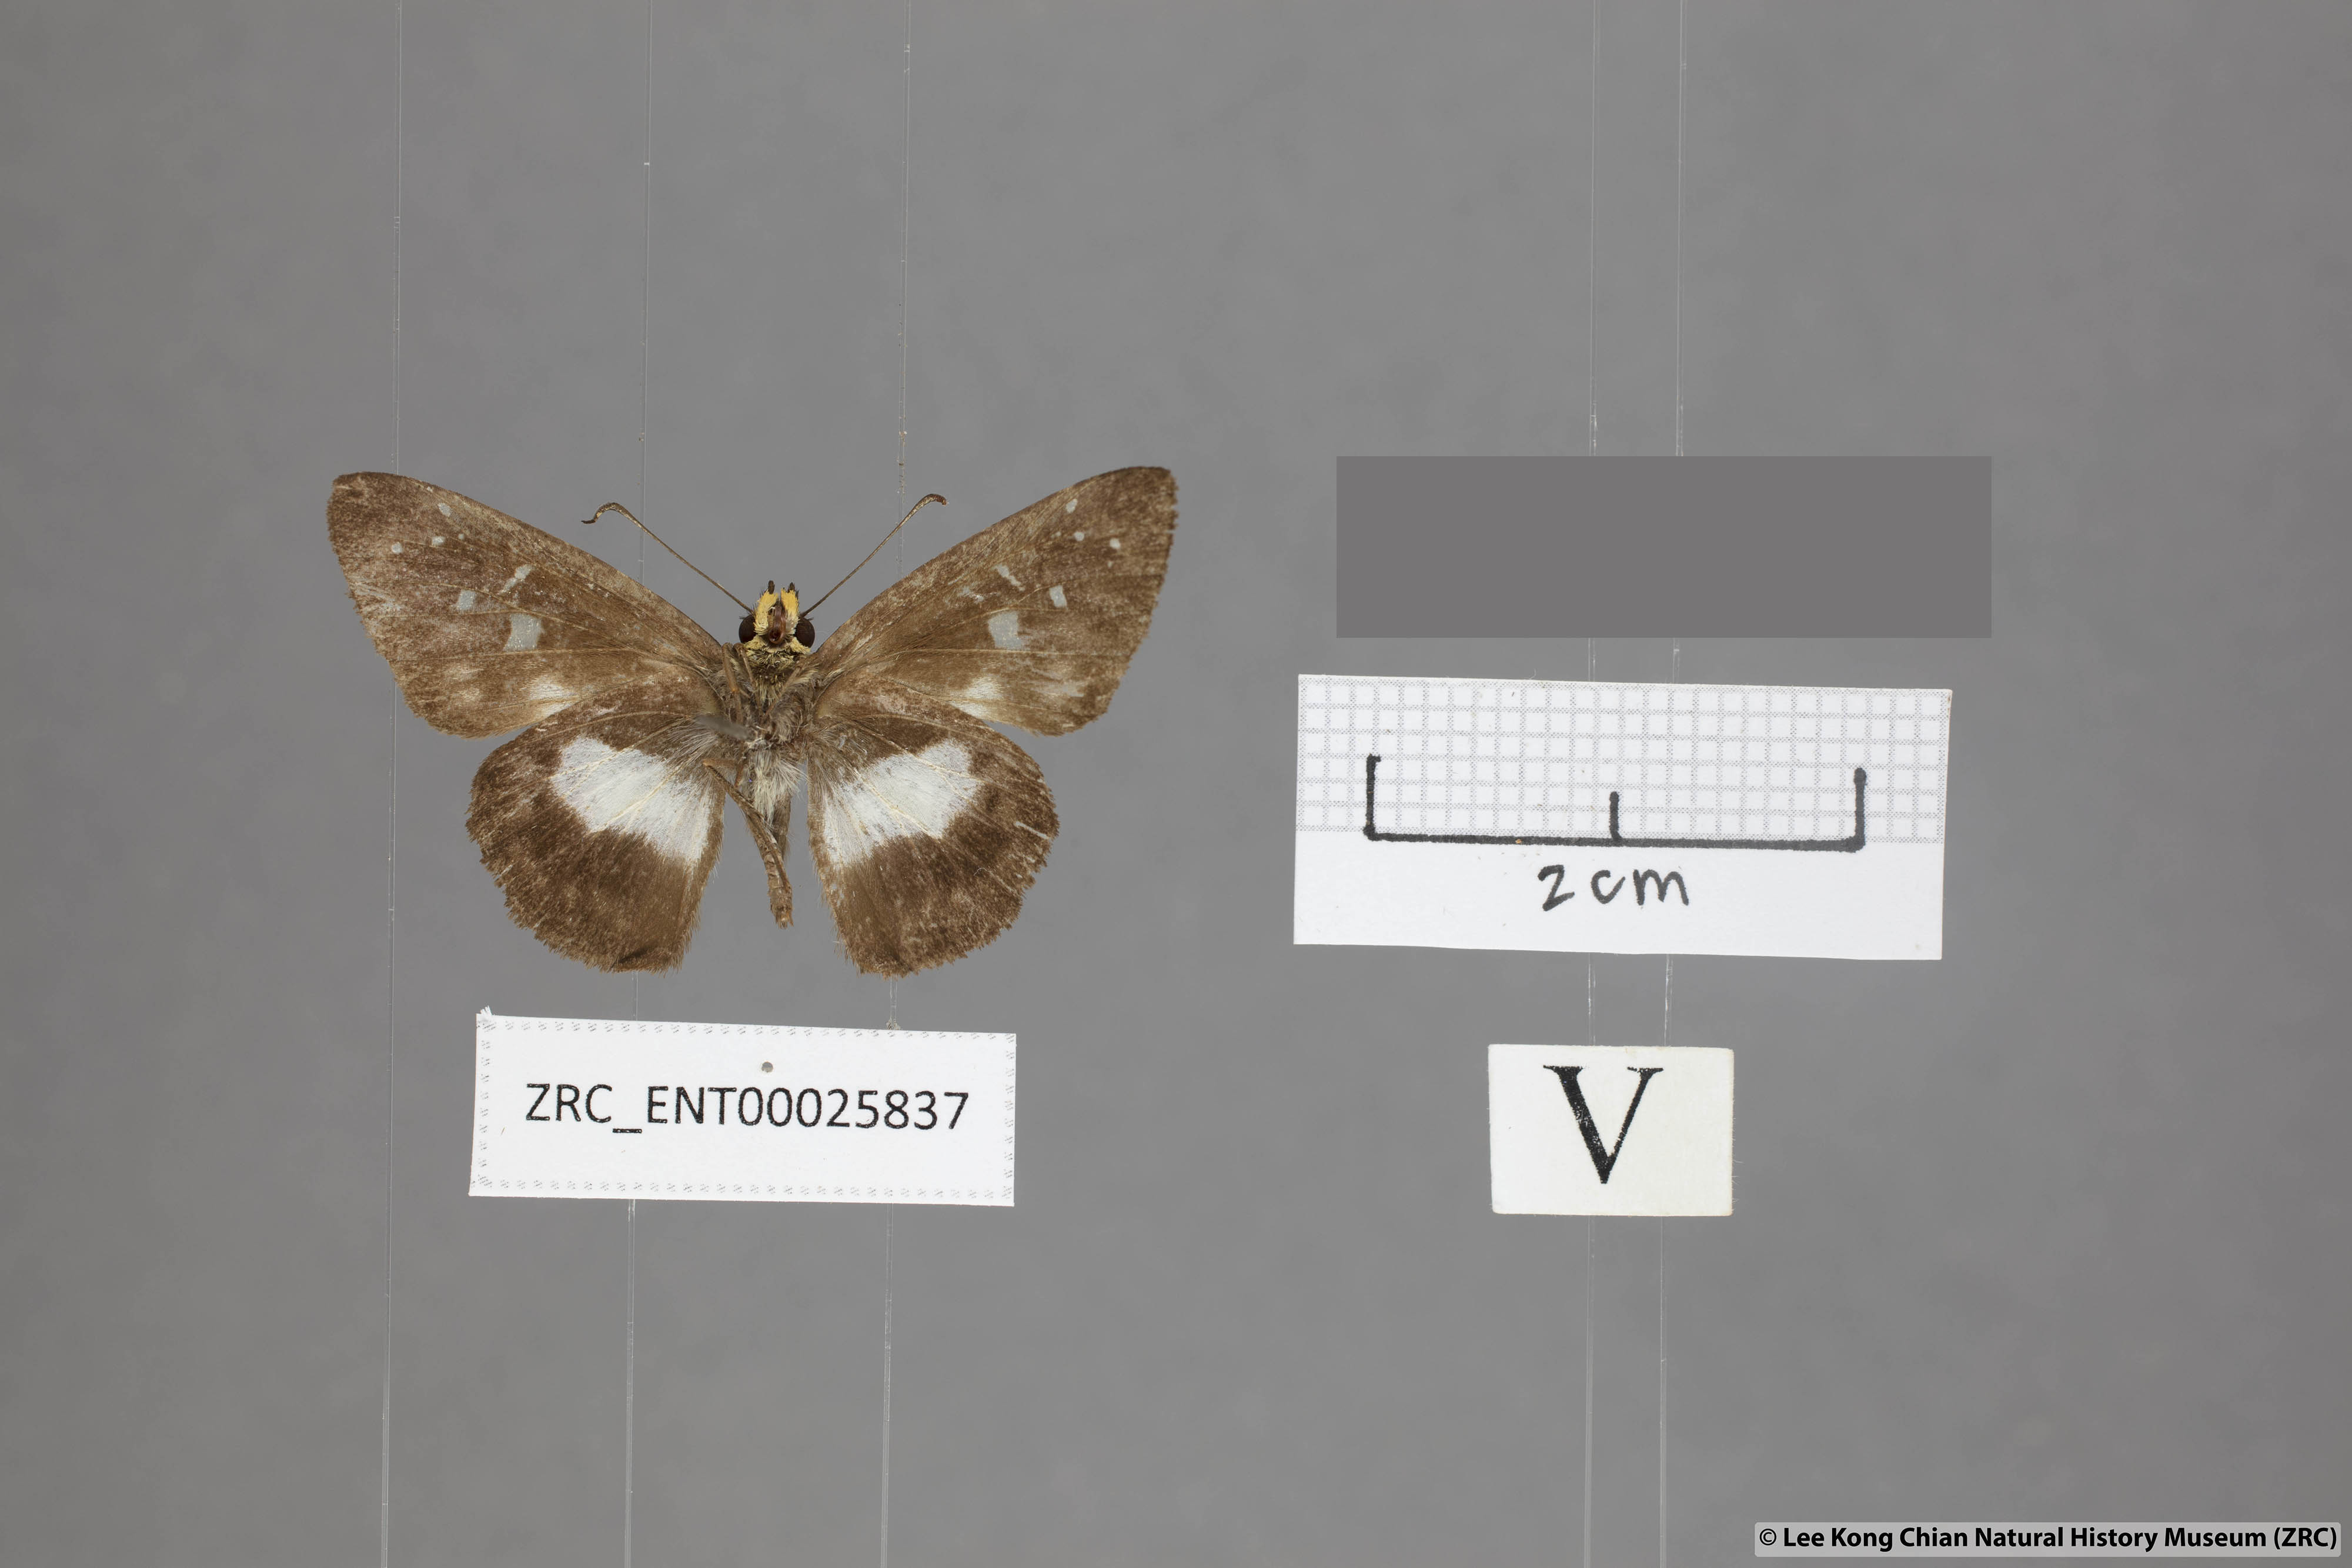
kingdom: Animalia
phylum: Arthropoda
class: Insecta
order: Lepidoptera
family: Hesperiidae
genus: Daimio
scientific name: Daimio
